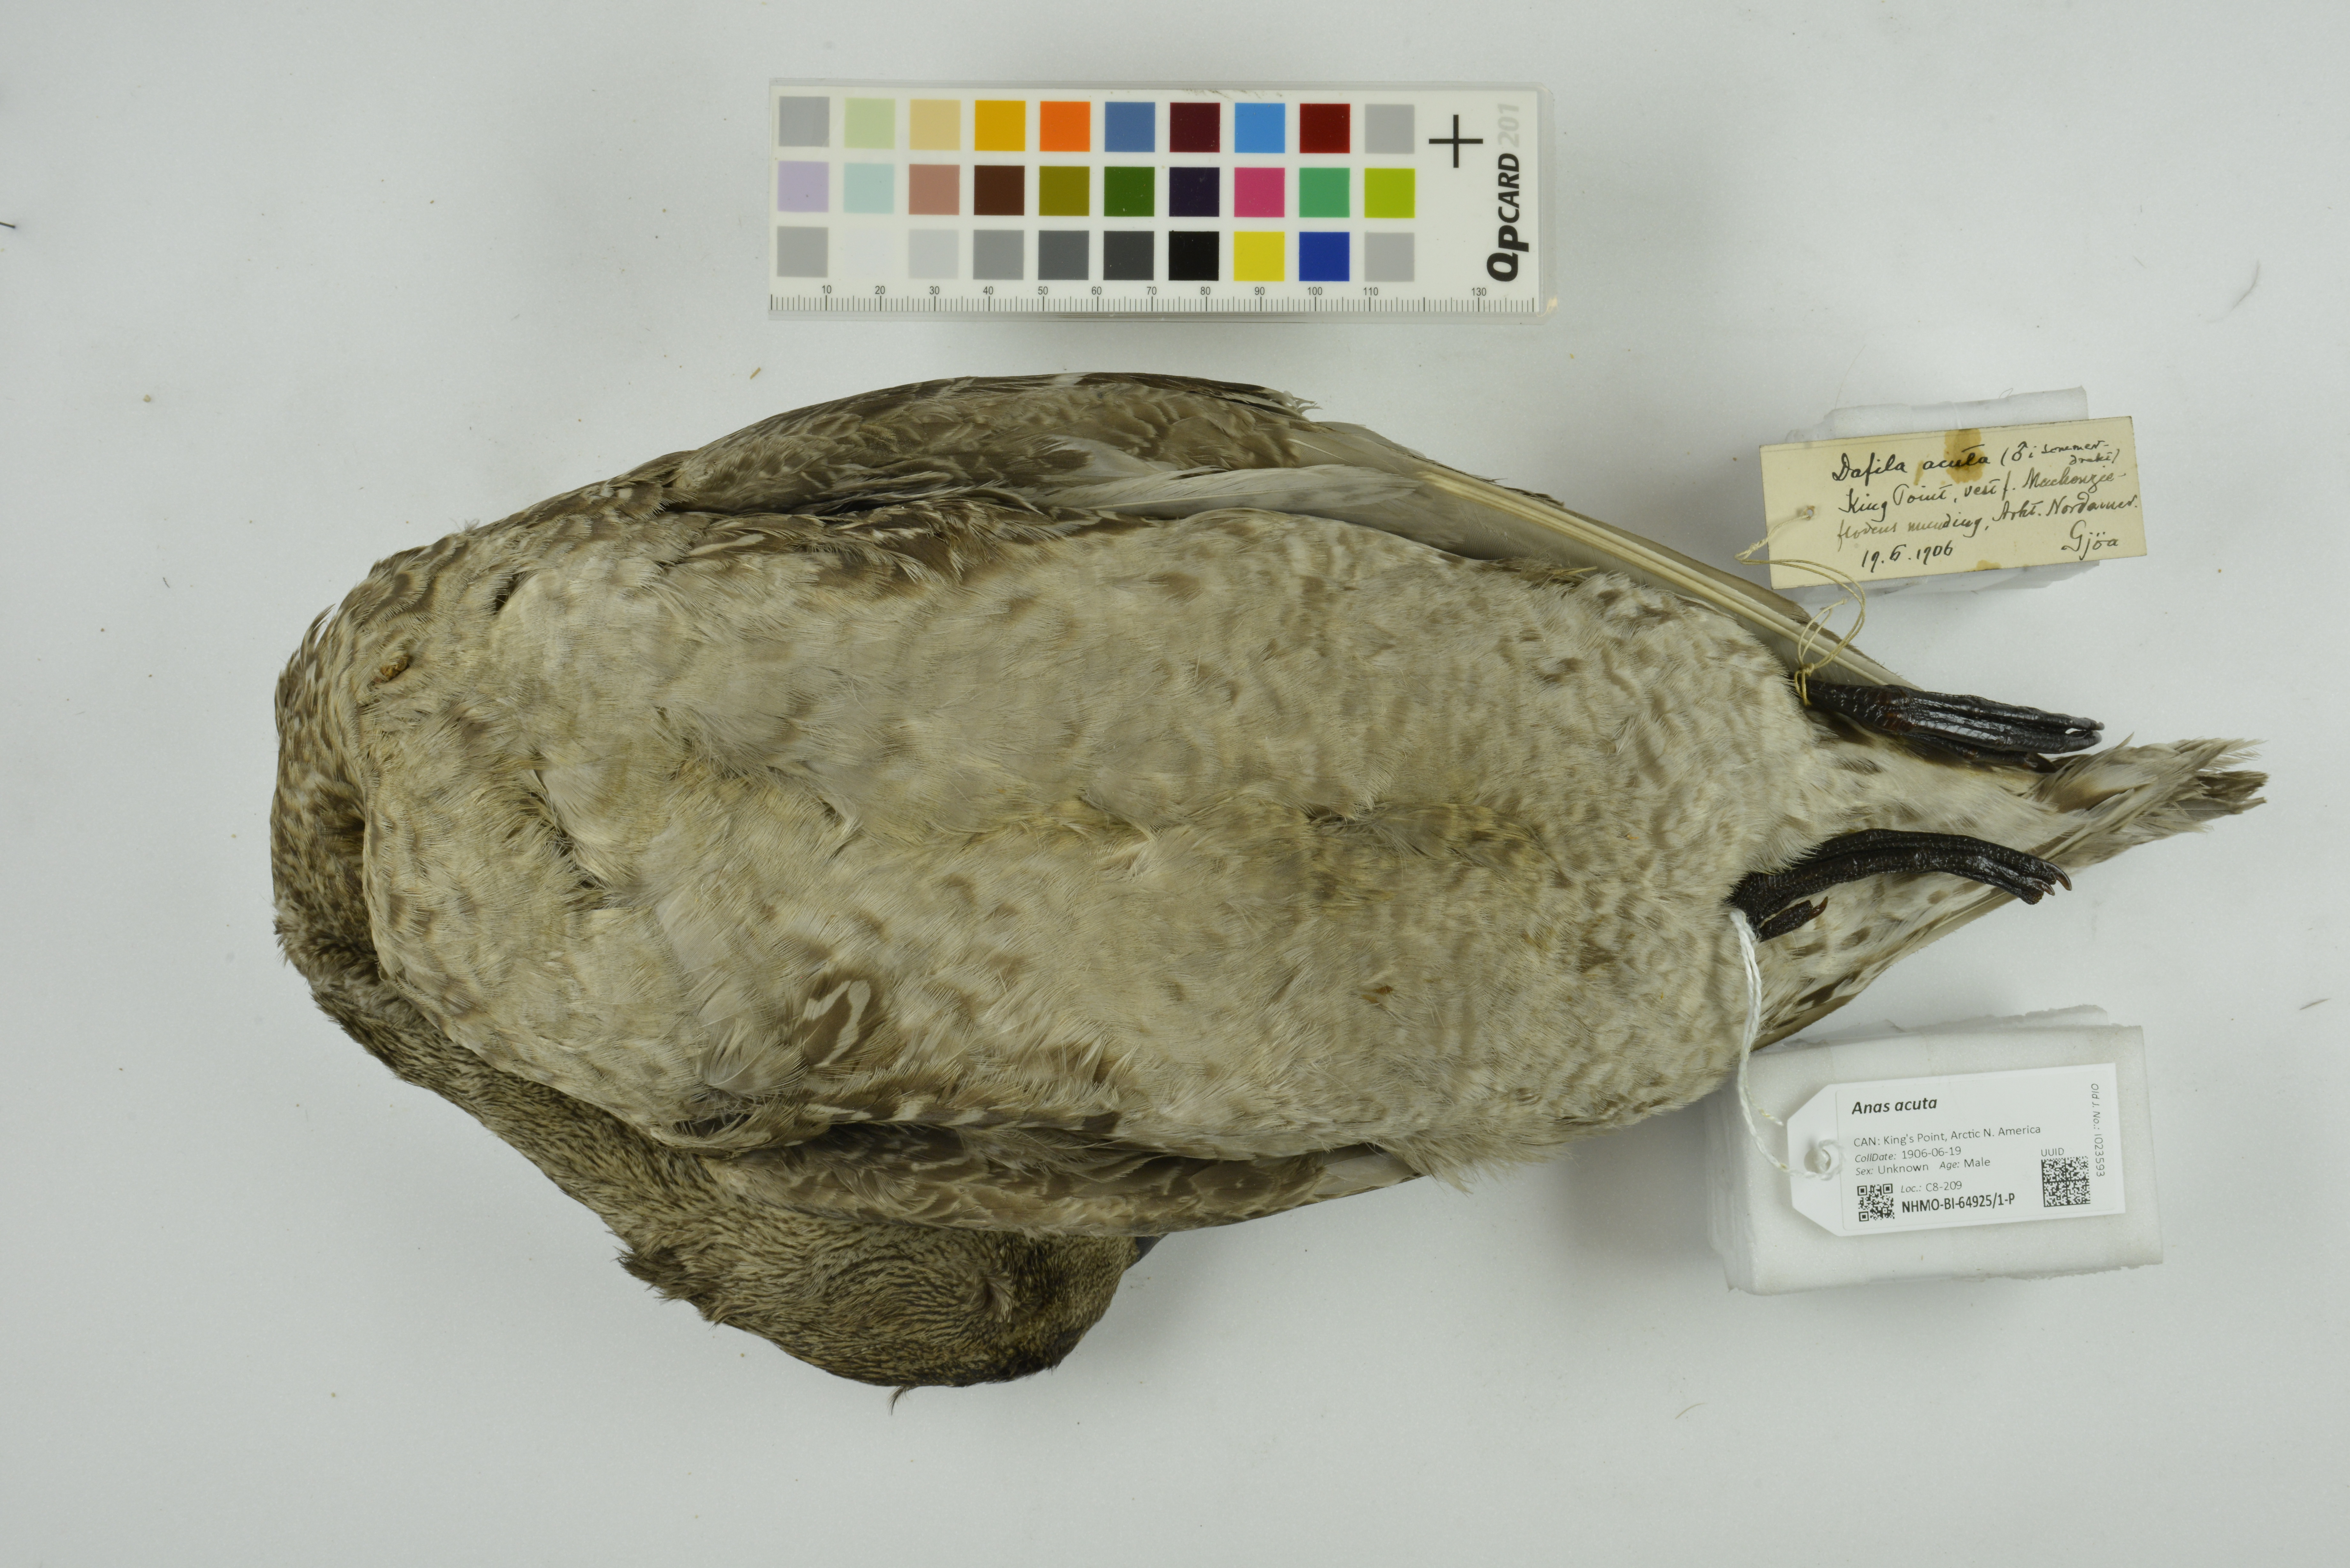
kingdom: Animalia
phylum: Chordata
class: Aves
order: Anseriformes
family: Anatidae
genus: Anas
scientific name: Anas acuta
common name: Northern pintail
